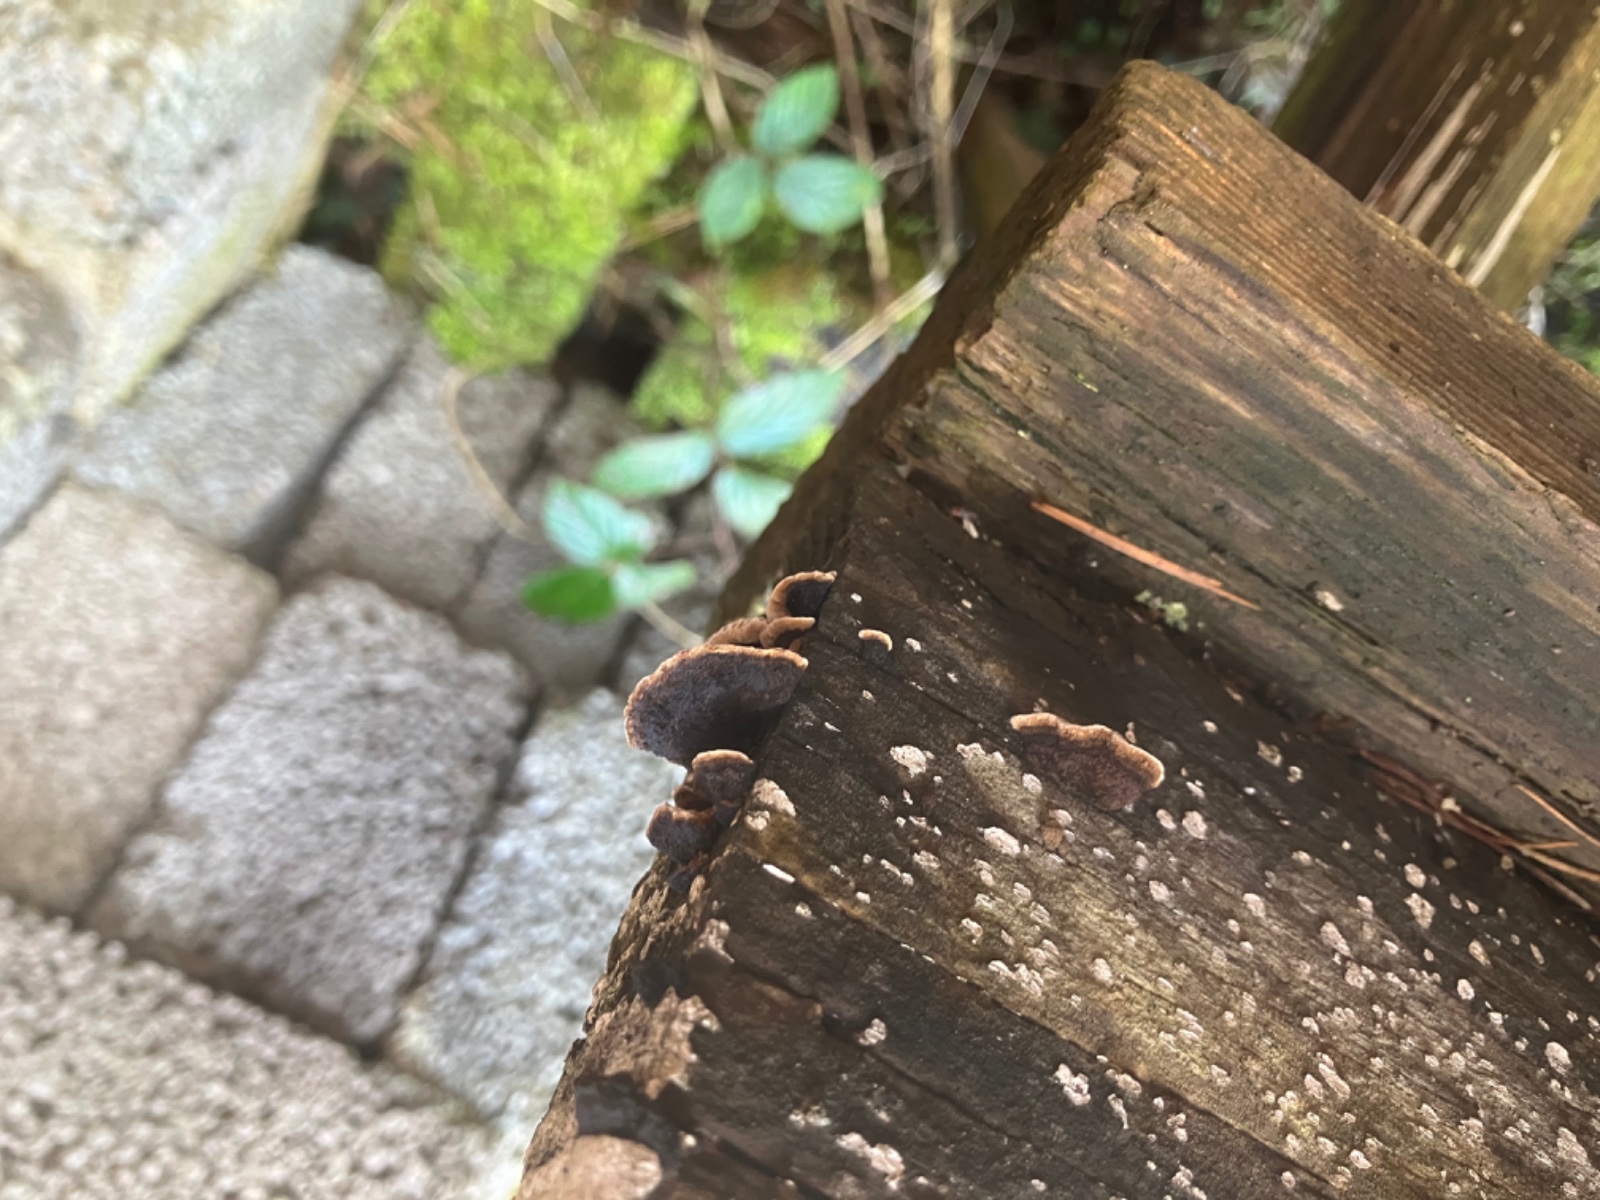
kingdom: Fungi
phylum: Basidiomycota
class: Agaricomycetes
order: Gloeophyllales
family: Gloeophyllaceae
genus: Gloeophyllum
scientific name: Gloeophyllum sepiarium
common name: fyrre-korkhat
